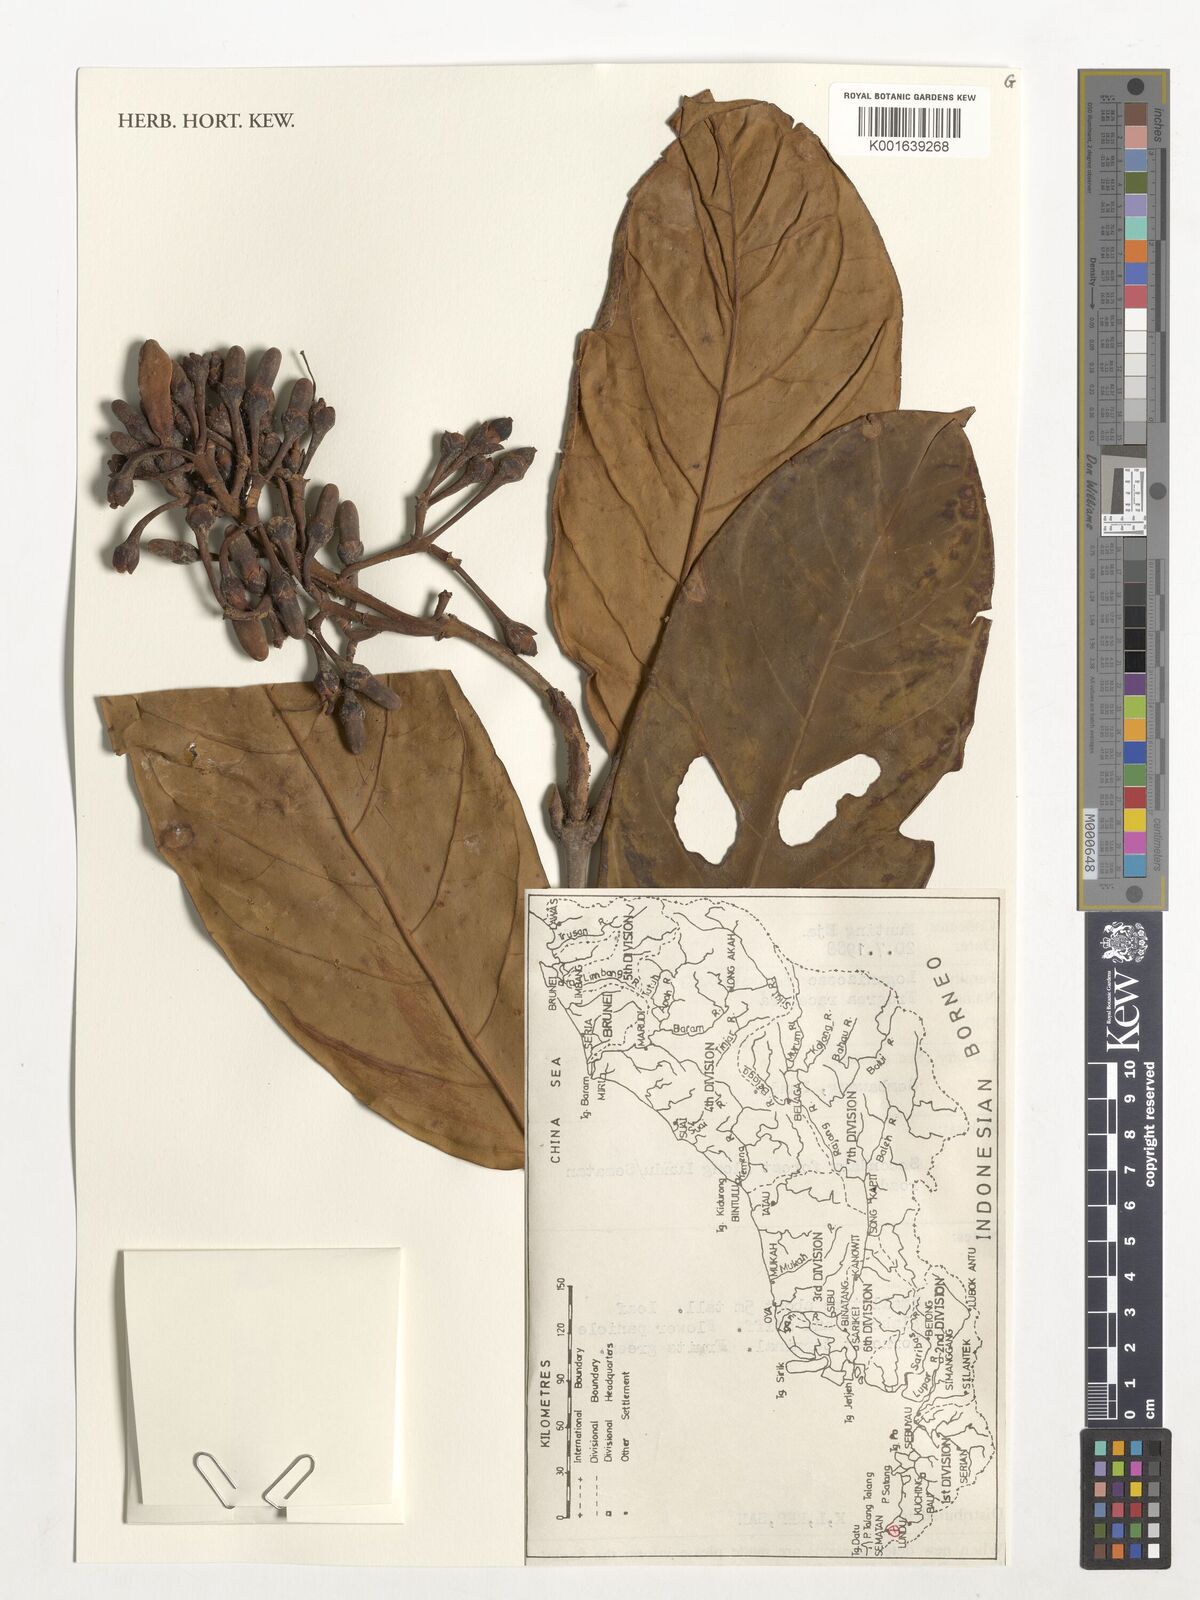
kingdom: Plantae
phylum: Tracheophyta
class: Magnoliopsida
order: Gentianales
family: Gentianaceae
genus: Utania
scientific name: Utania racemosa
